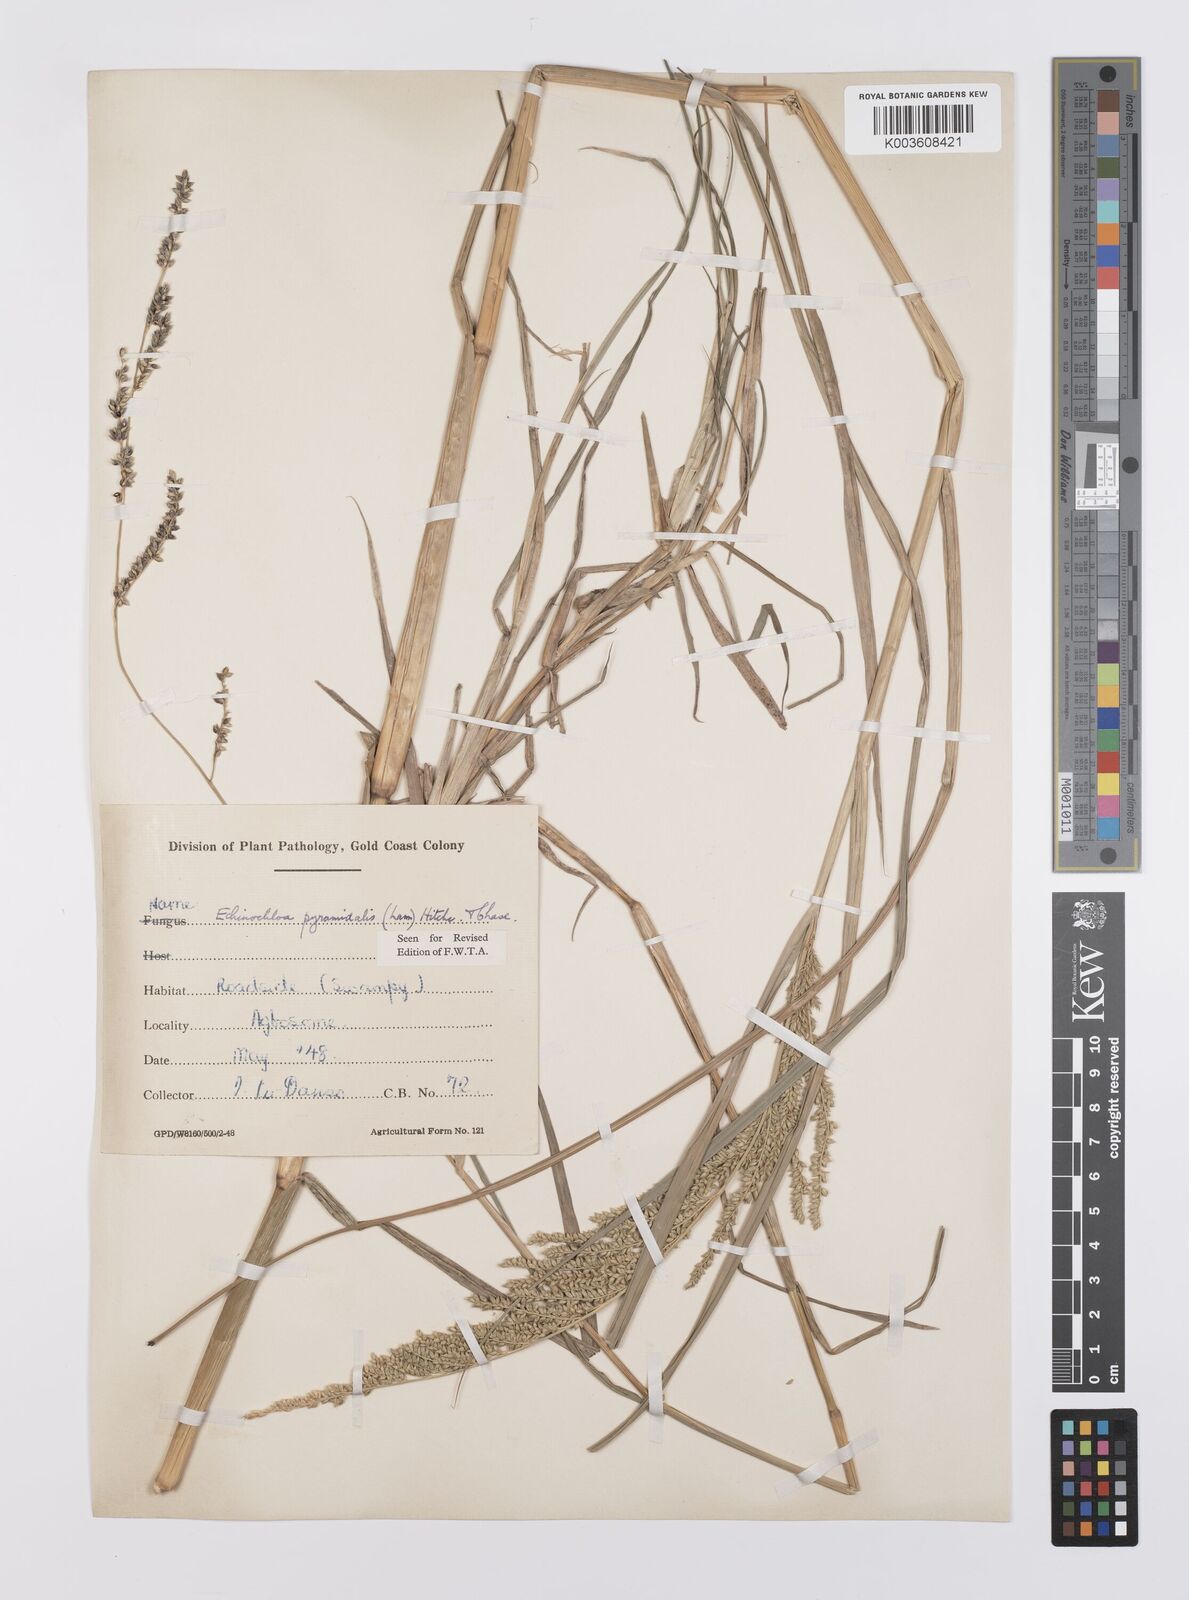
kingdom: Plantae
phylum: Tracheophyta
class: Liliopsida
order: Poales
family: Poaceae
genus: Echinochloa
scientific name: Echinochloa pyramidalis
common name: Antelope grass
